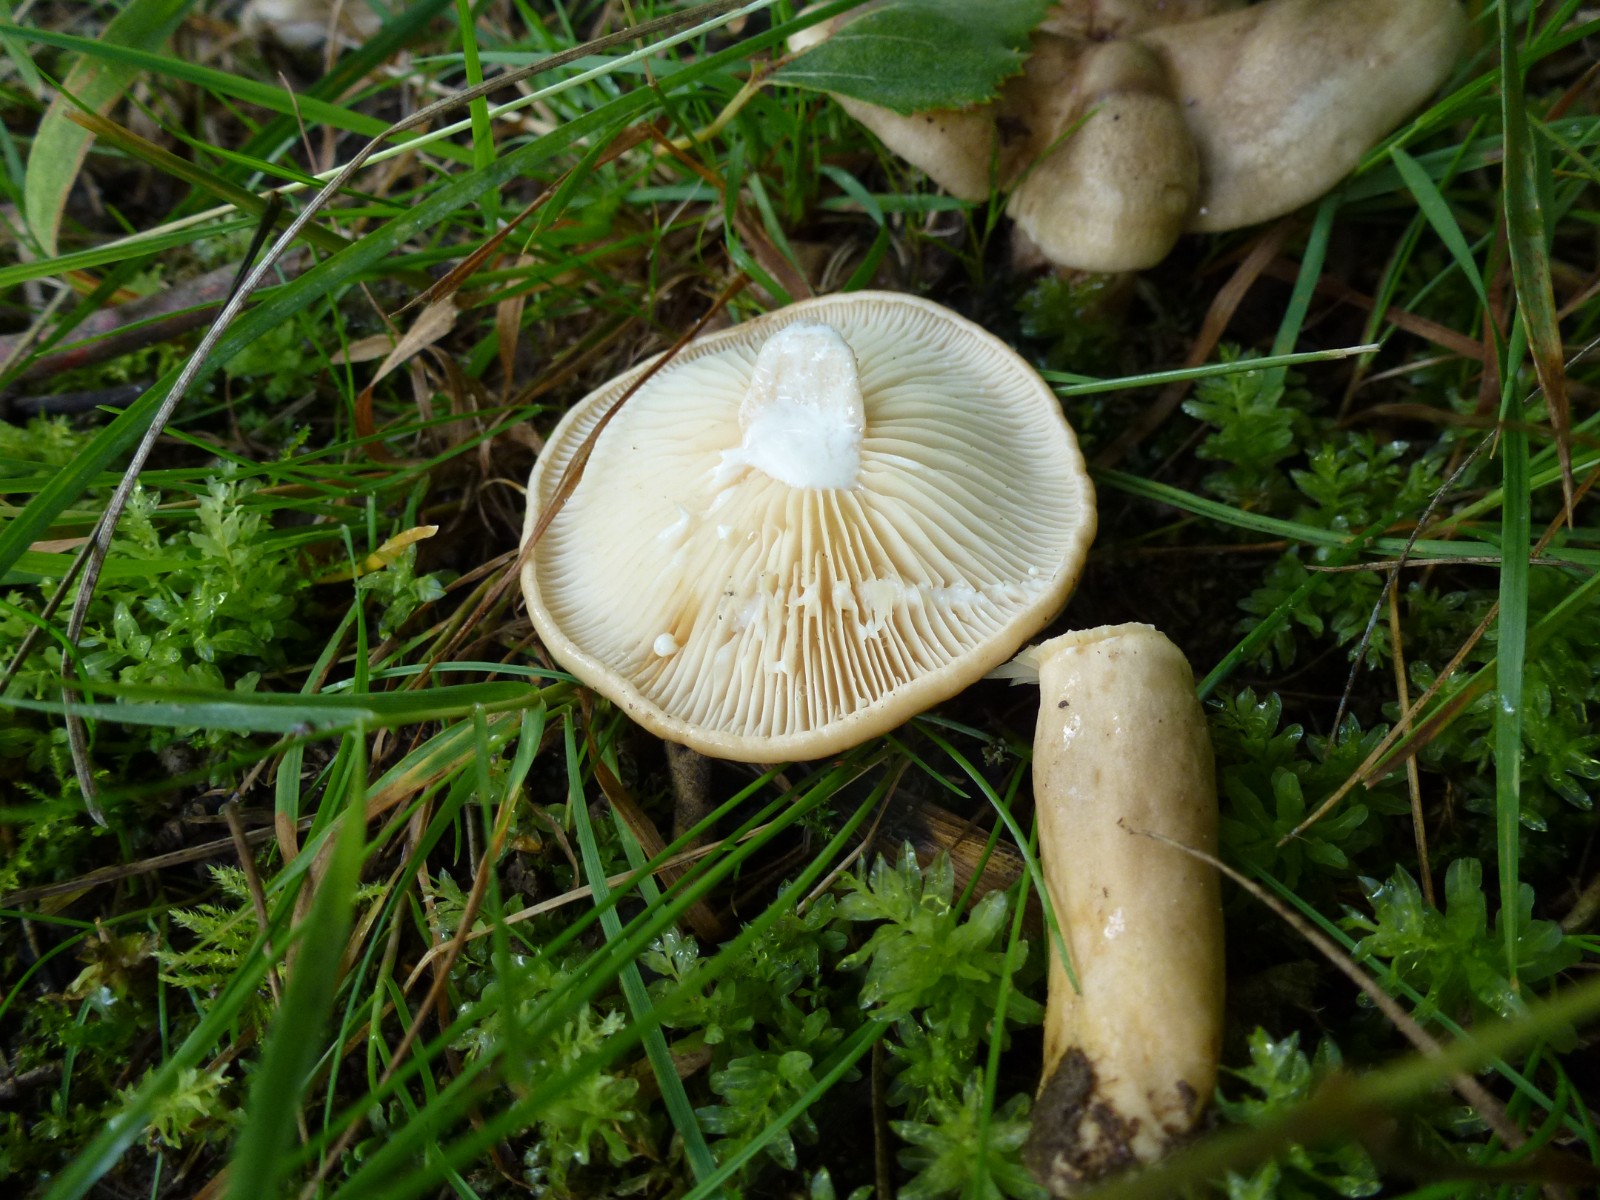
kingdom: Fungi
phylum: Basidiomycota
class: Agaricomycetes
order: Russulales
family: Russulaceae
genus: Lactarius
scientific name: Lactarius
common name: mælkehat
